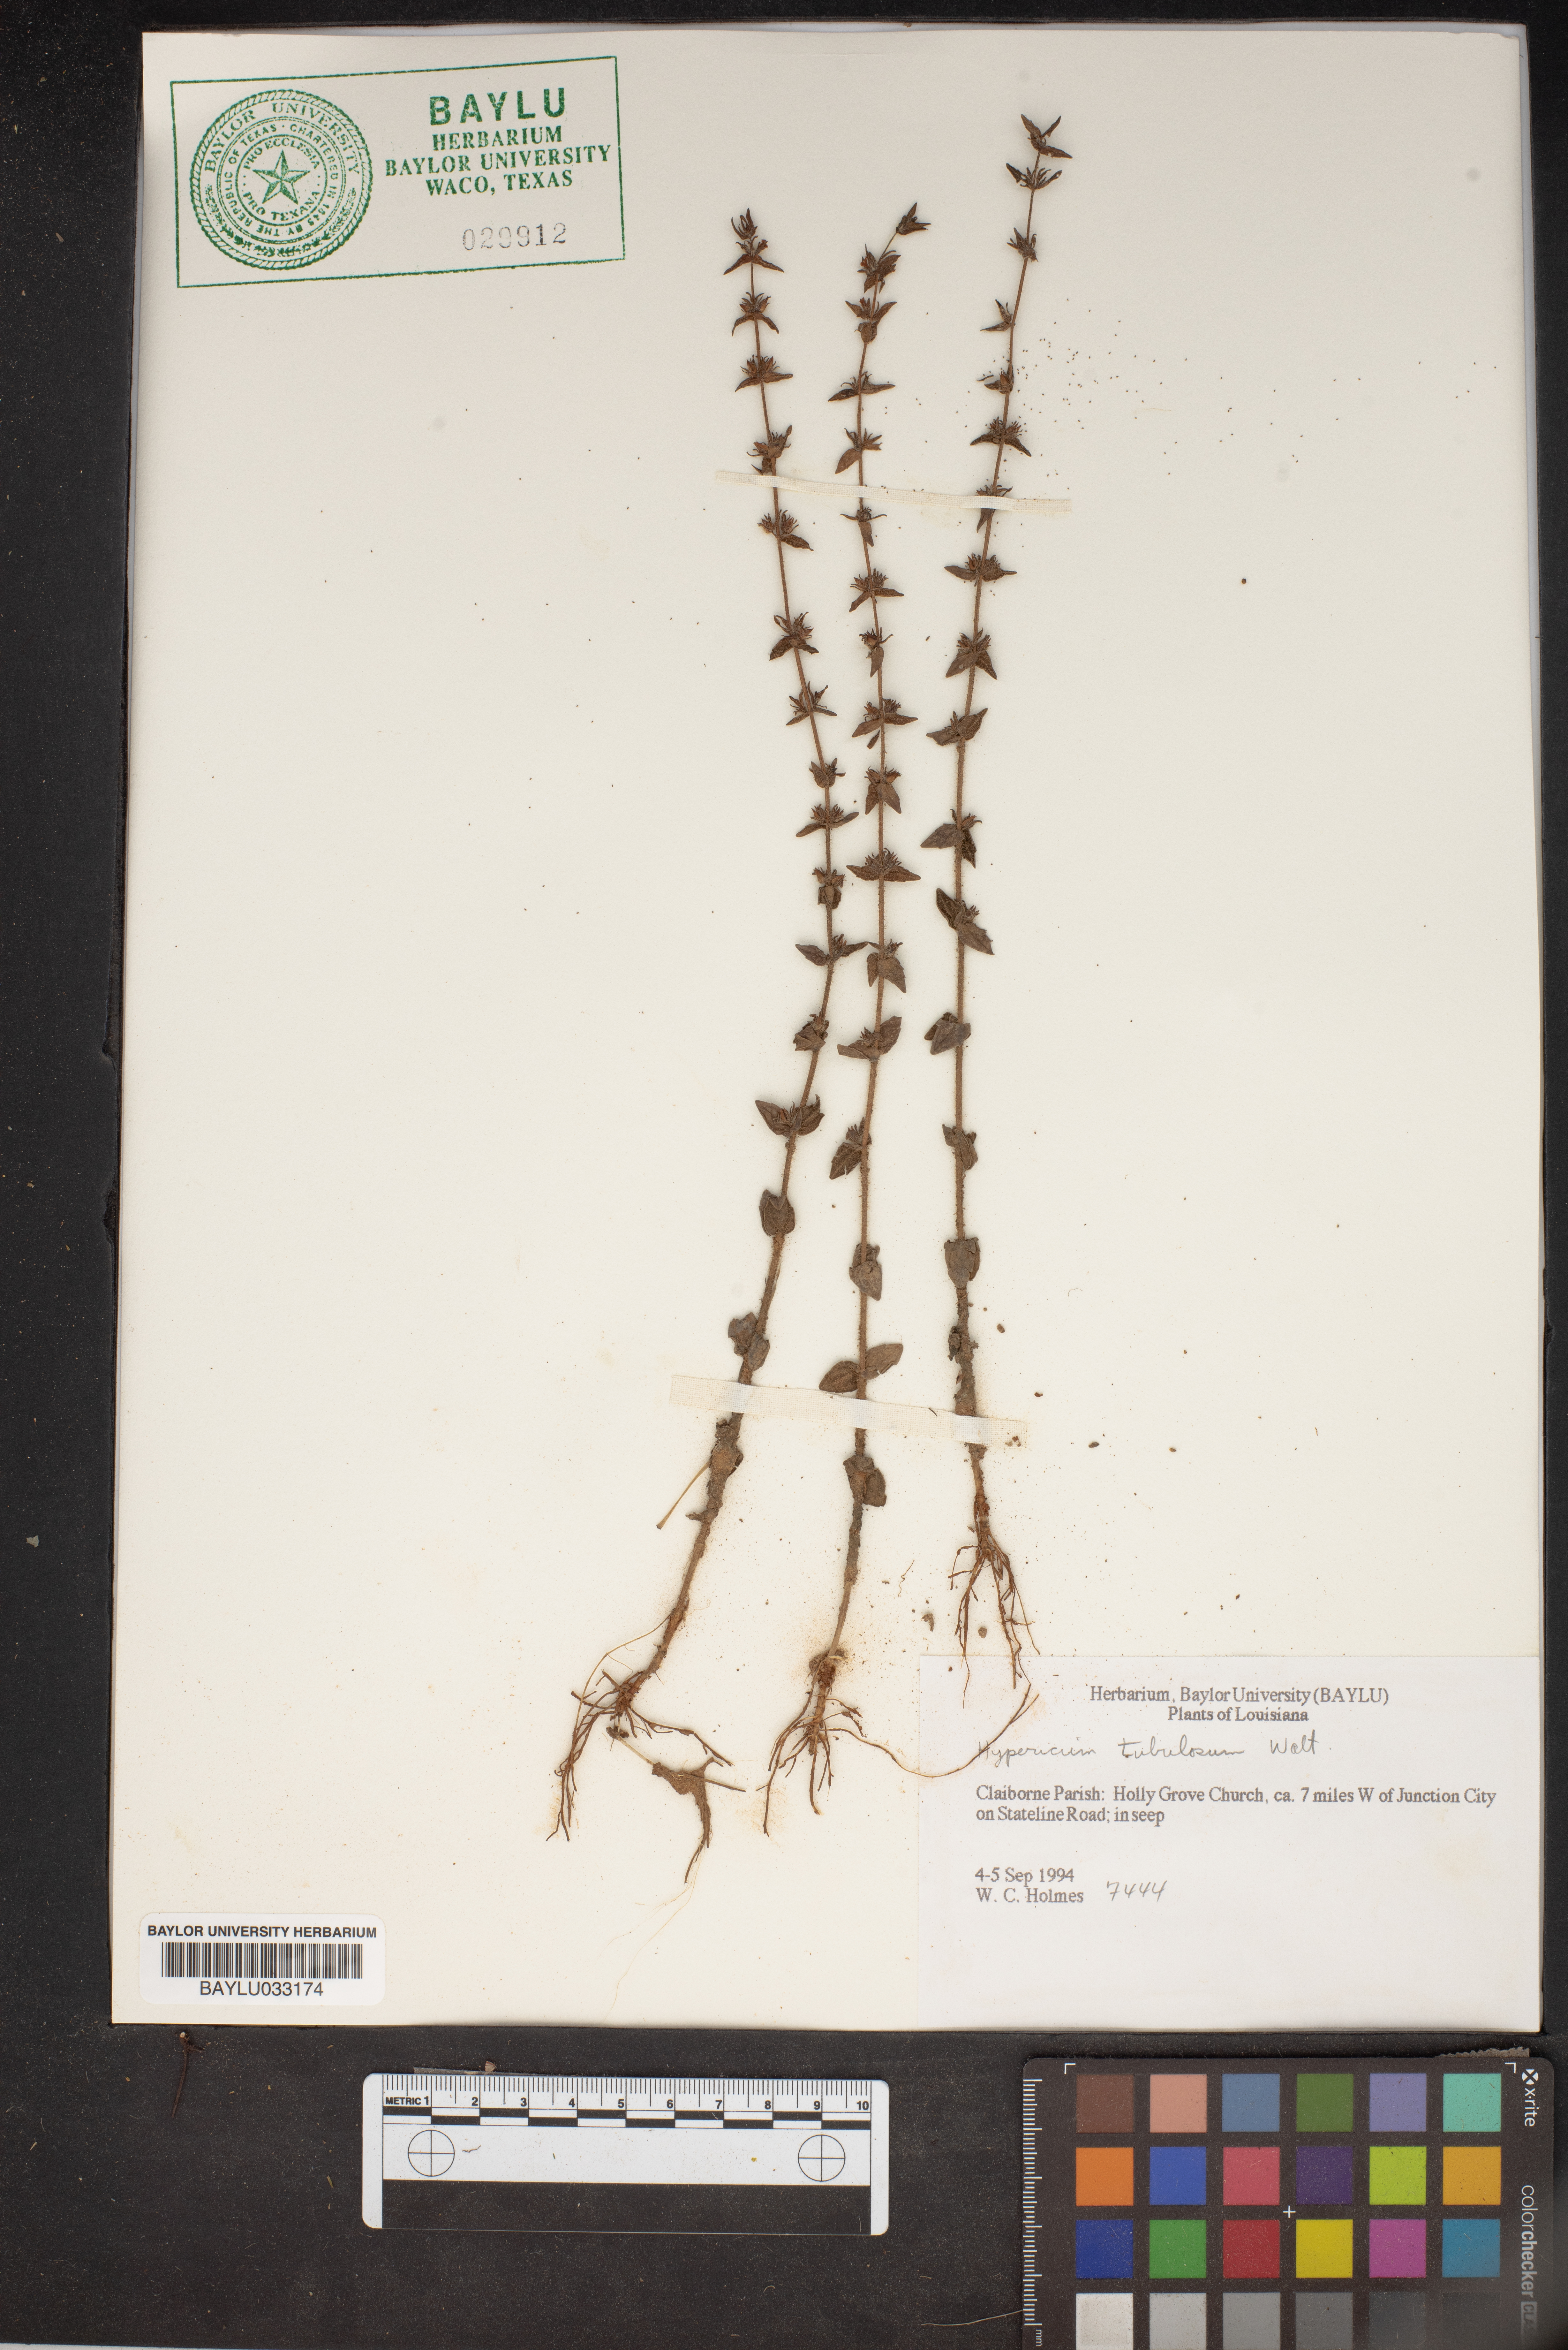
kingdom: Plantae
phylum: Tracheophyta
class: Magnoliopsida
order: Malpighiales
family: Hypericaceae
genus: Triadenum
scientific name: Triadenum tubulosum
